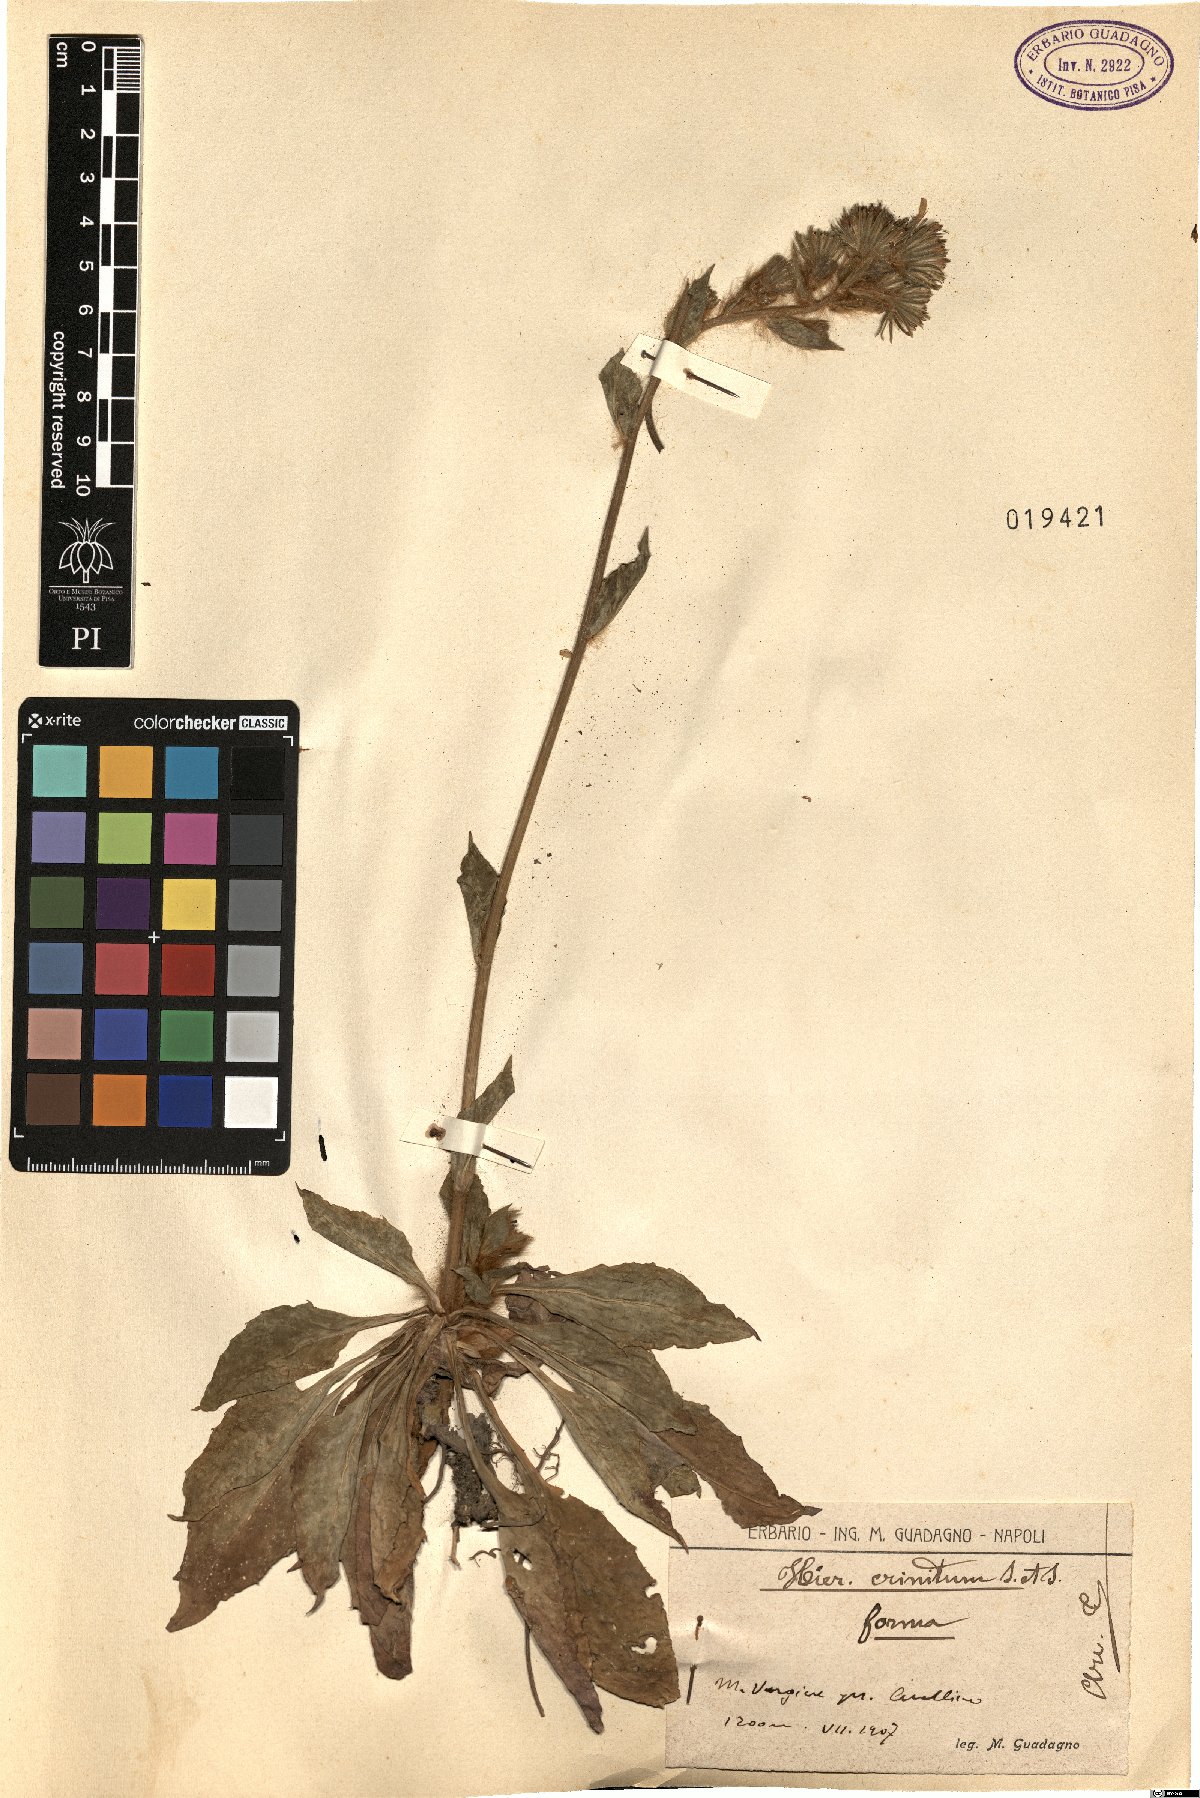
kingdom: Plantae
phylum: Tracheophyta
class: Magnoliopsida
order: Asterales
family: Asteraceae
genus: Hieracium
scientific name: Hieracium racemosum
